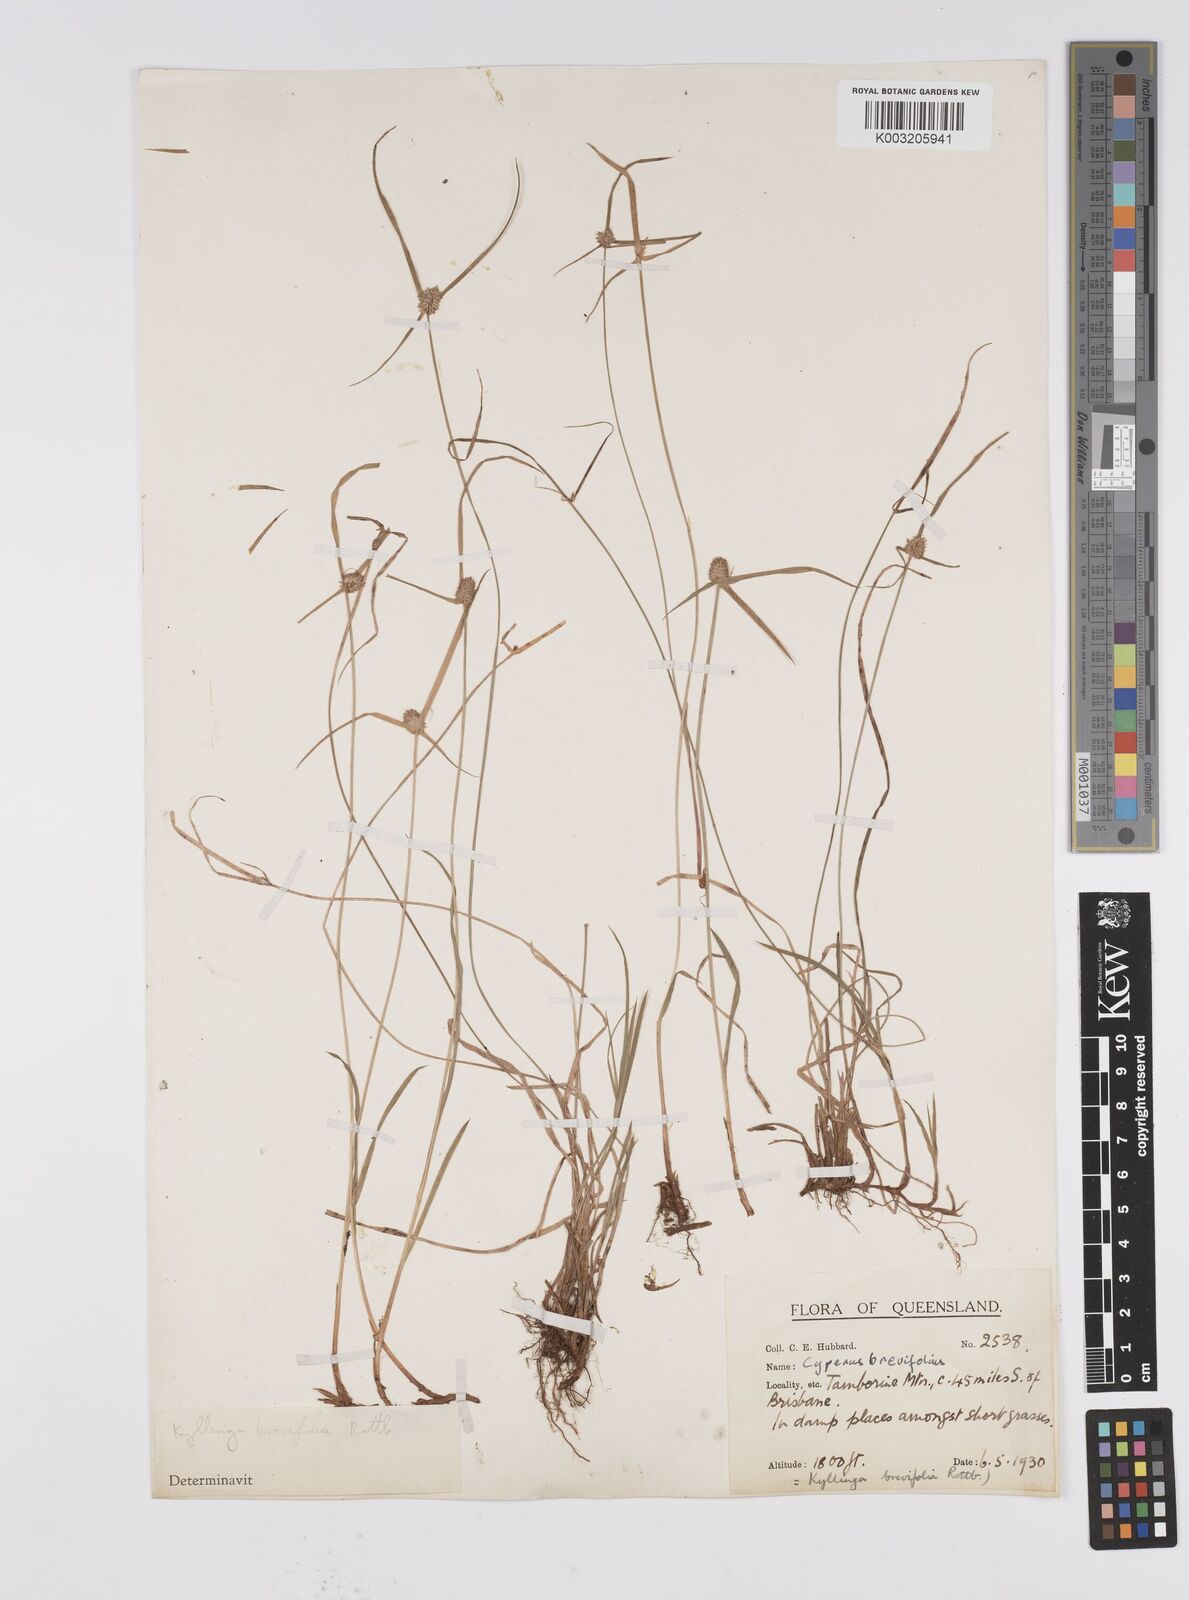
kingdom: Plantae
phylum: Tracheophyta
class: Liliopsida
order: Poales
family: Cyperaceae
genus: Cyperus
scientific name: Cyperus brevifolius
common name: Globe kyllinga
